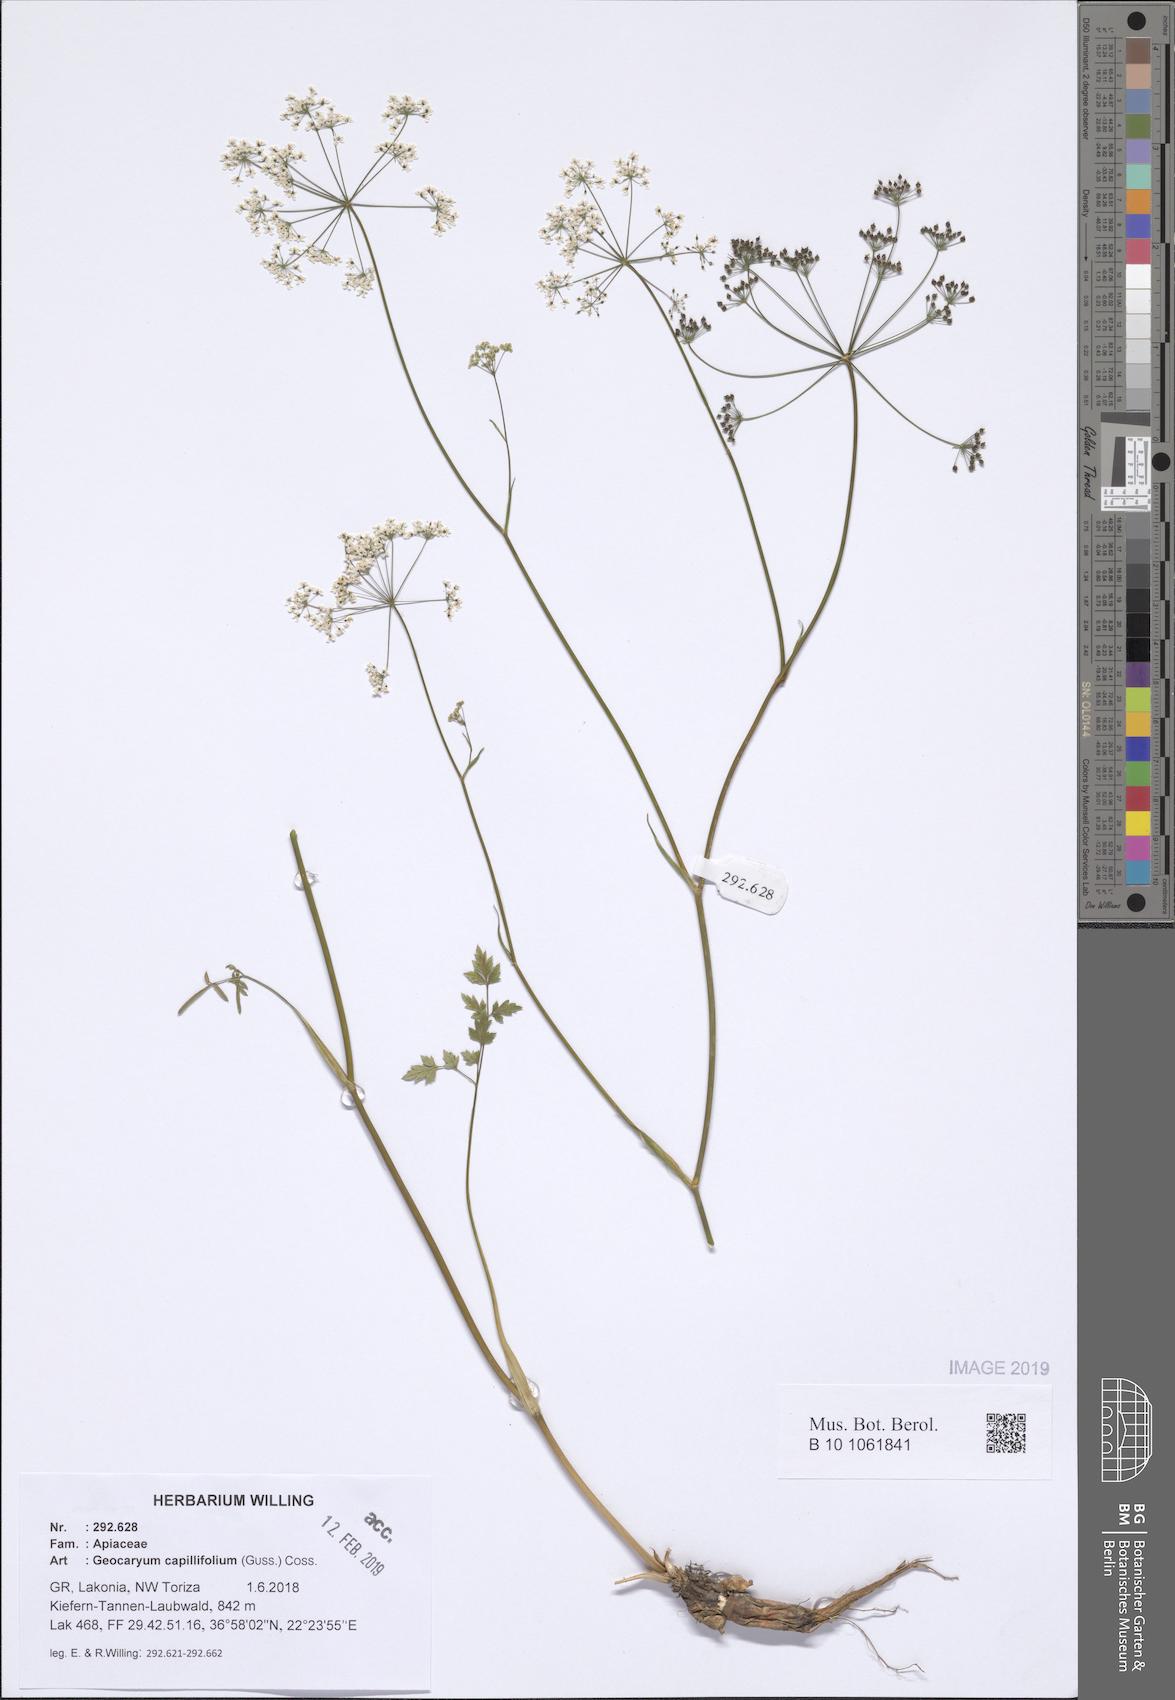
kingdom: Plantae
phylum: Tracheophyta
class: Magnoliopsida
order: Apiales
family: Apiaceae
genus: Geocaryum
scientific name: Geocaryum capillifolium
